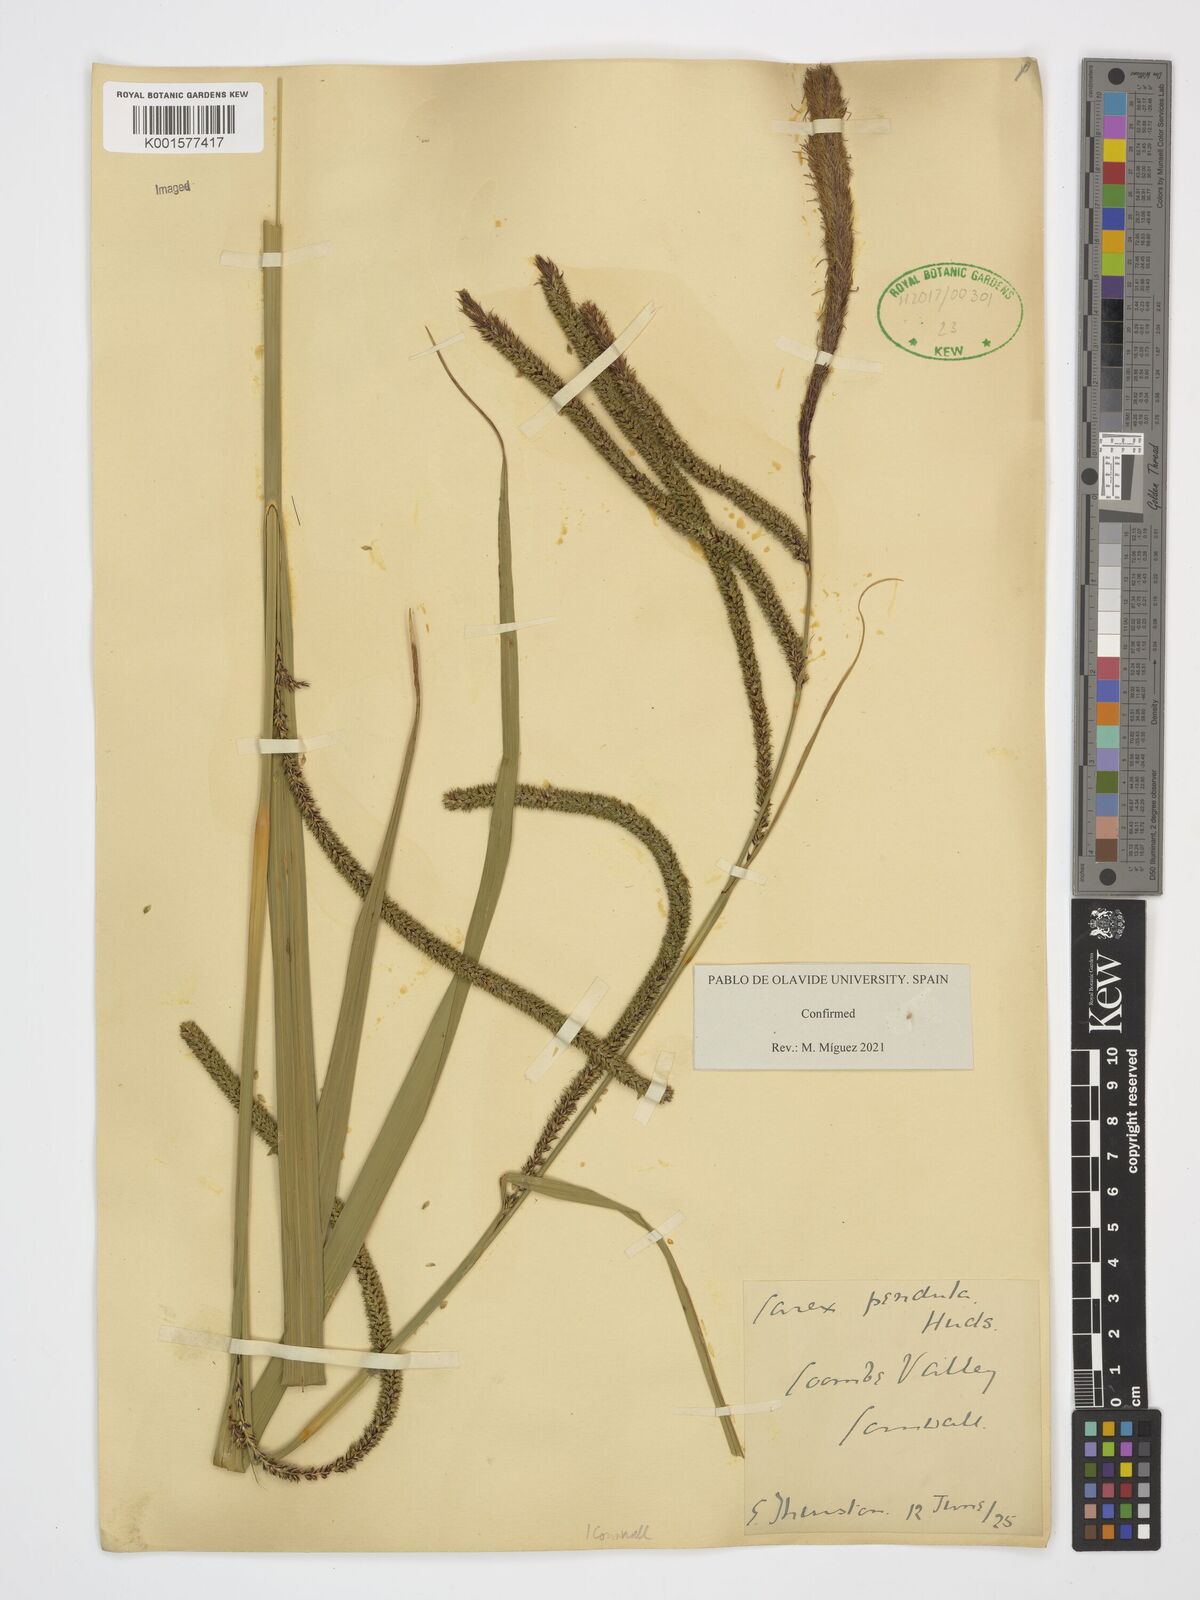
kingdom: Plantae
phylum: Tracheophyta
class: Liliopsida
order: Poales
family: Cyperaceae
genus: Carex
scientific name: Carex pendula
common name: Pendulous sedge
